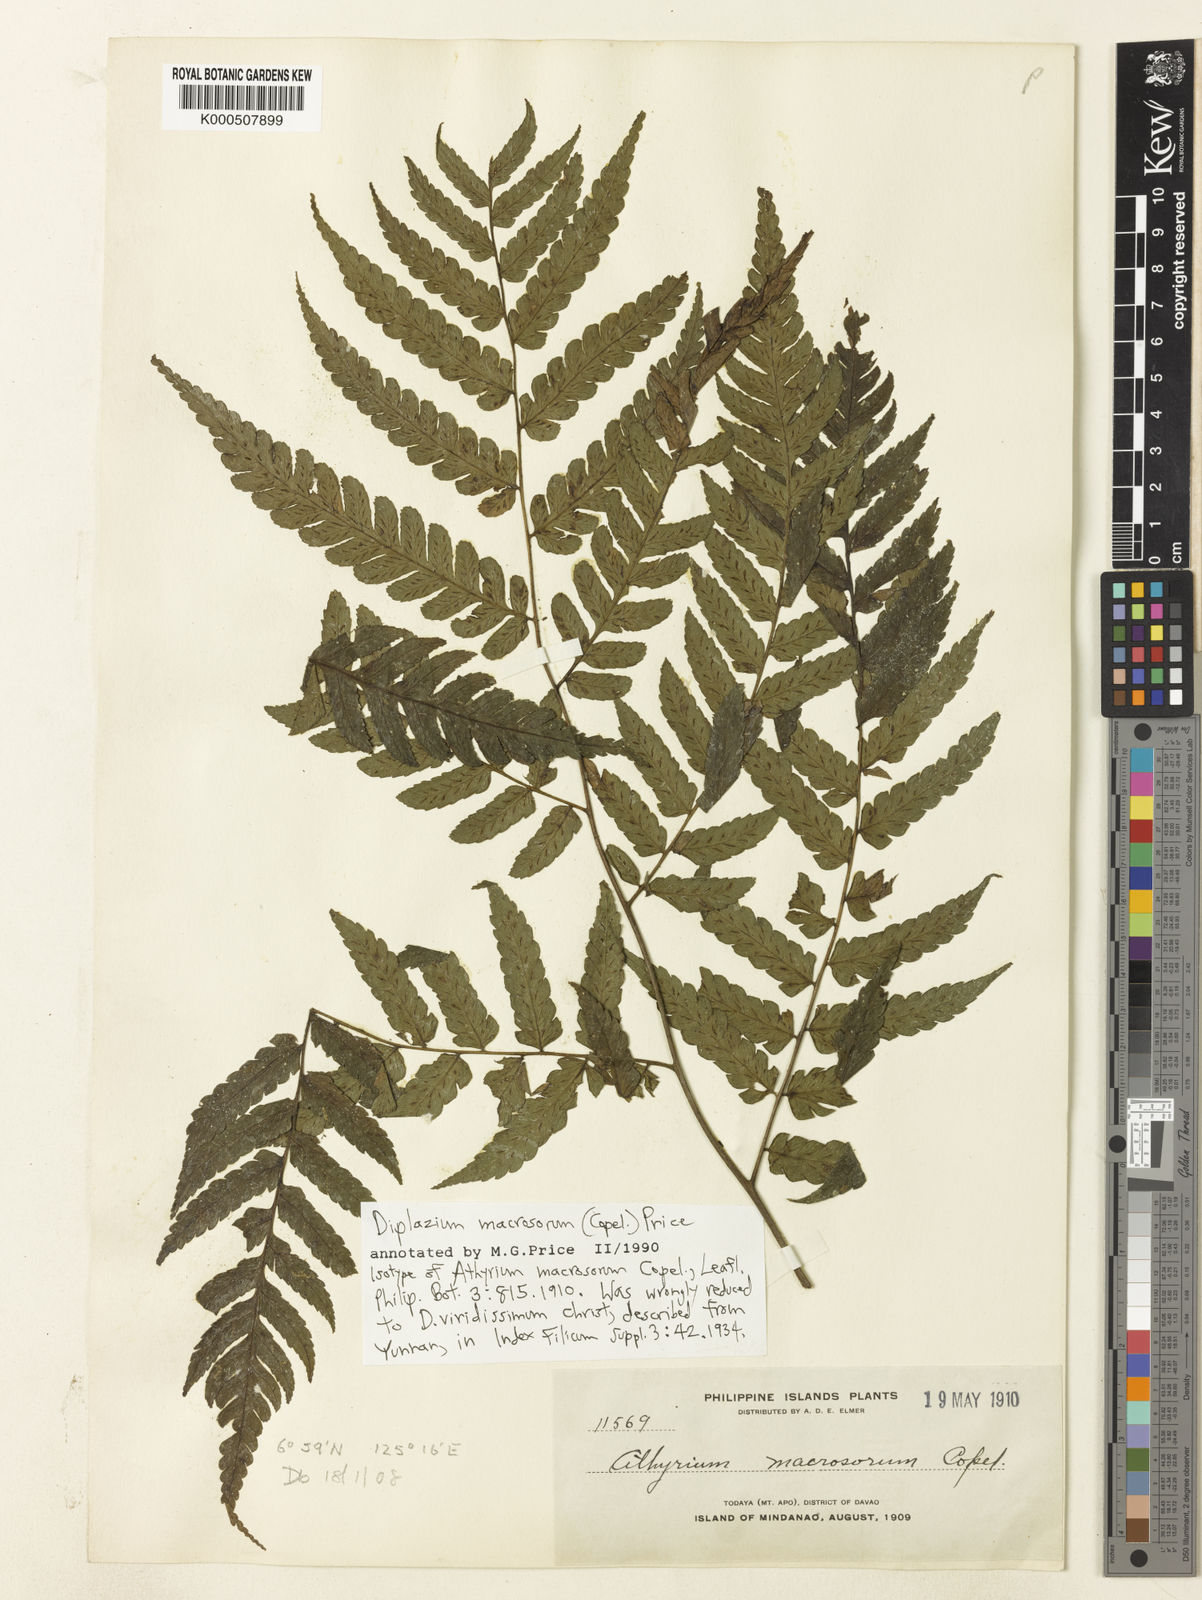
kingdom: Plantae
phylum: Tracheophyta
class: Polypodiopsida
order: Polypodiales
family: Athyriaceae
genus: Diplazium
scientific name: Diplazium maximum
